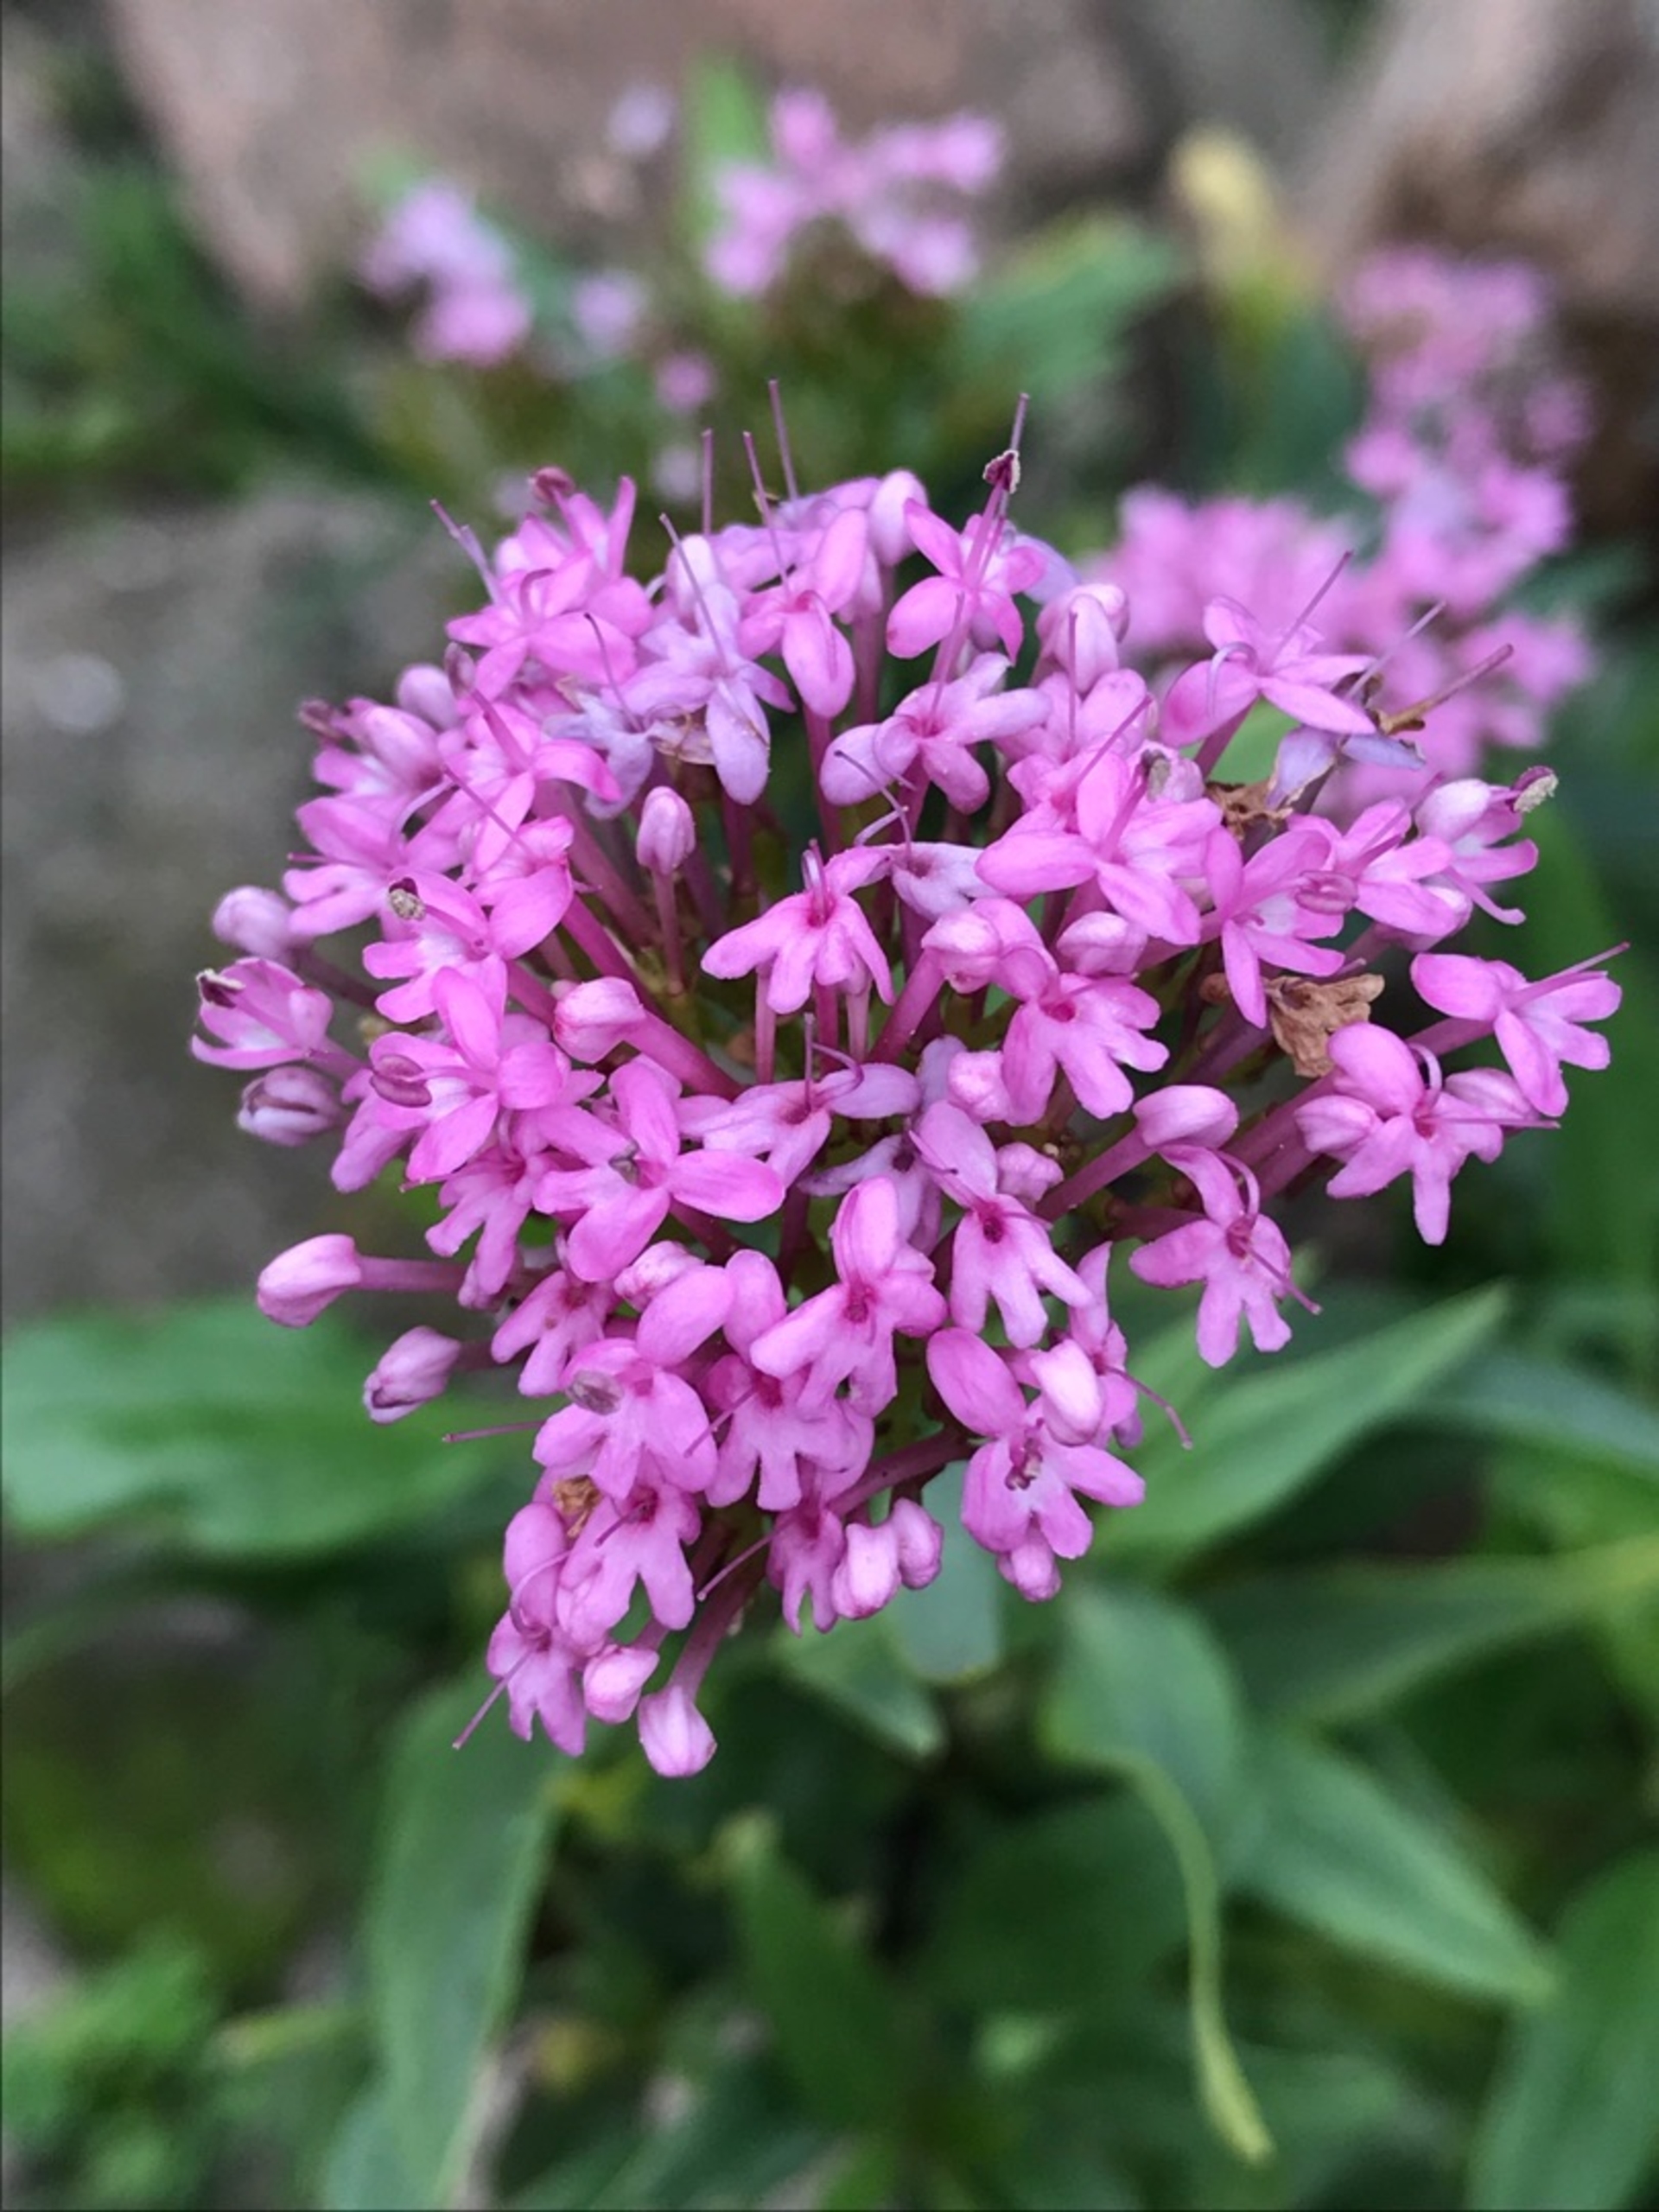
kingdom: Plantae
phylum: Tracheophyta
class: Magnoliopsida
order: Dipsacales
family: Caprifoliaceae
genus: Centranthus
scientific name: Centranthus ruber
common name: Sporebaldrian
